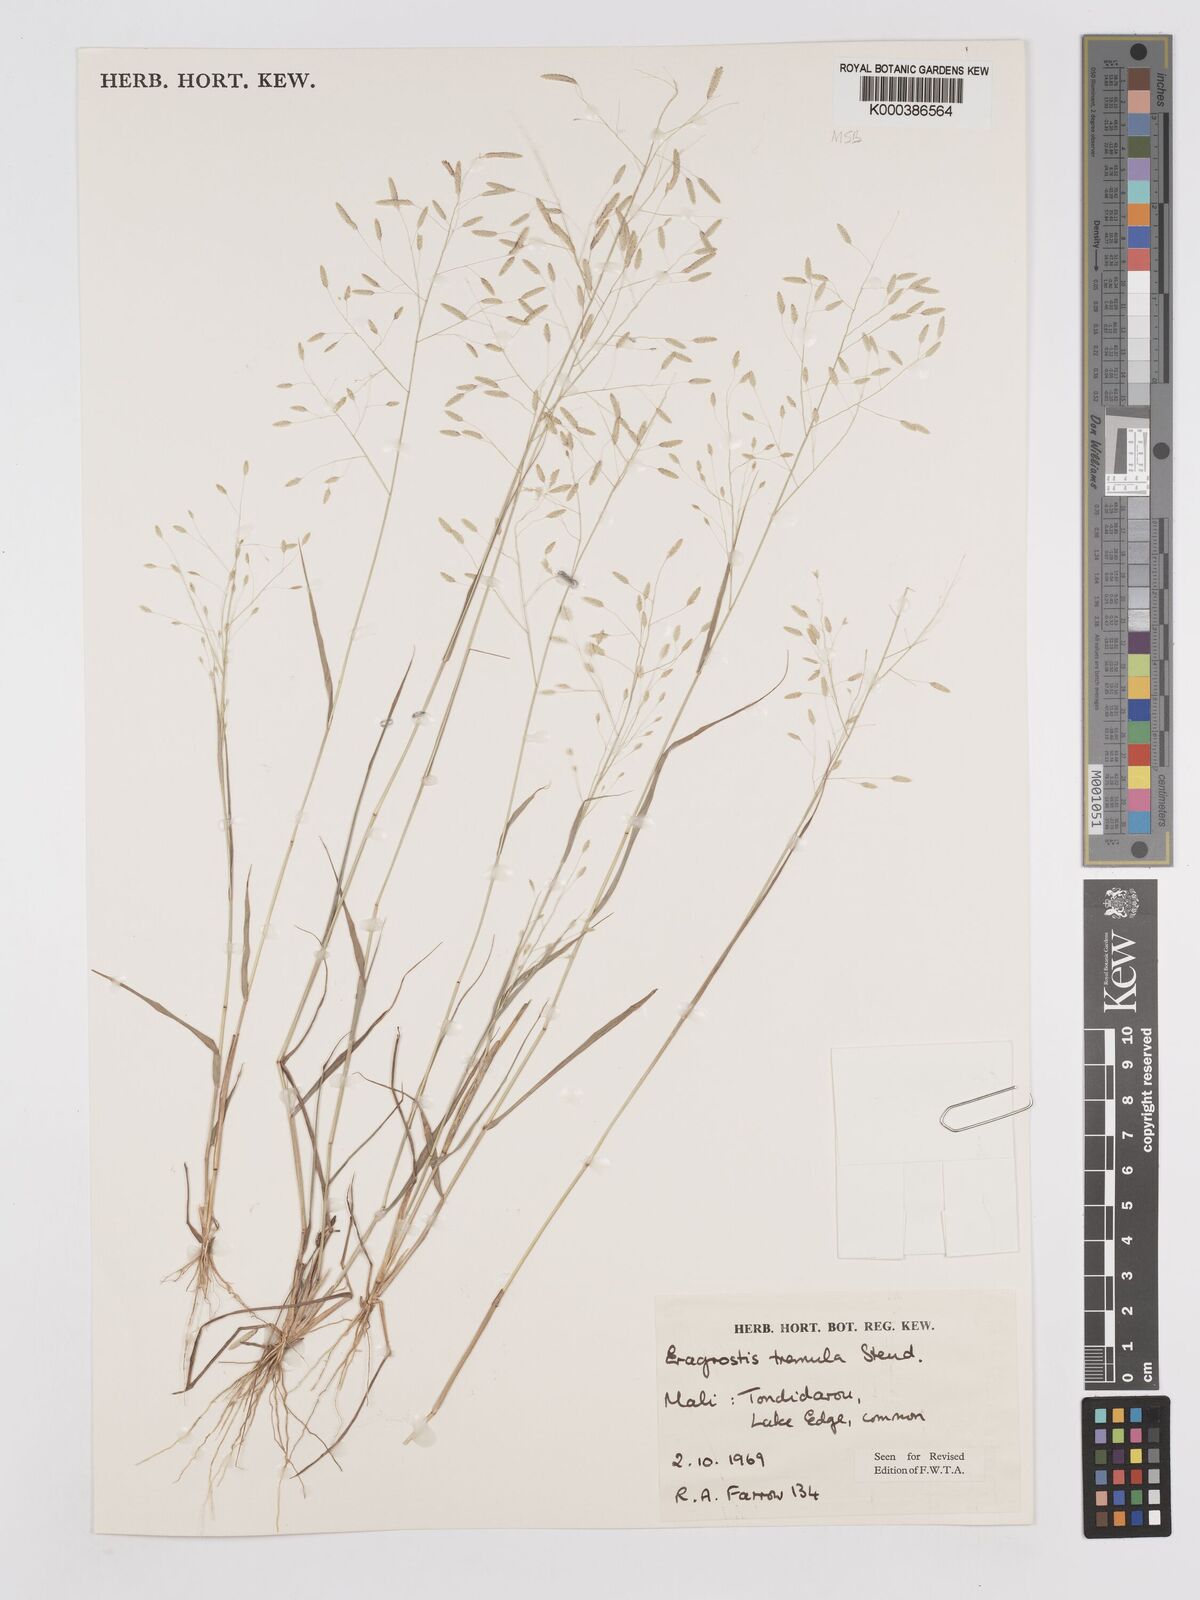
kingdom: Plantae
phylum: Tracheophyta
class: Liliopsida
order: Poales
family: Poaceae
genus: Eragrostis
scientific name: Eragrostis tremula
